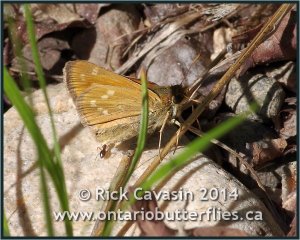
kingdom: Animalia
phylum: Arthropoda
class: Insecta
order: Lepidoptera
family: Hesperiidae
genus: Hesperia
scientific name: Hesperia sassacus
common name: Sassacus Skipper
